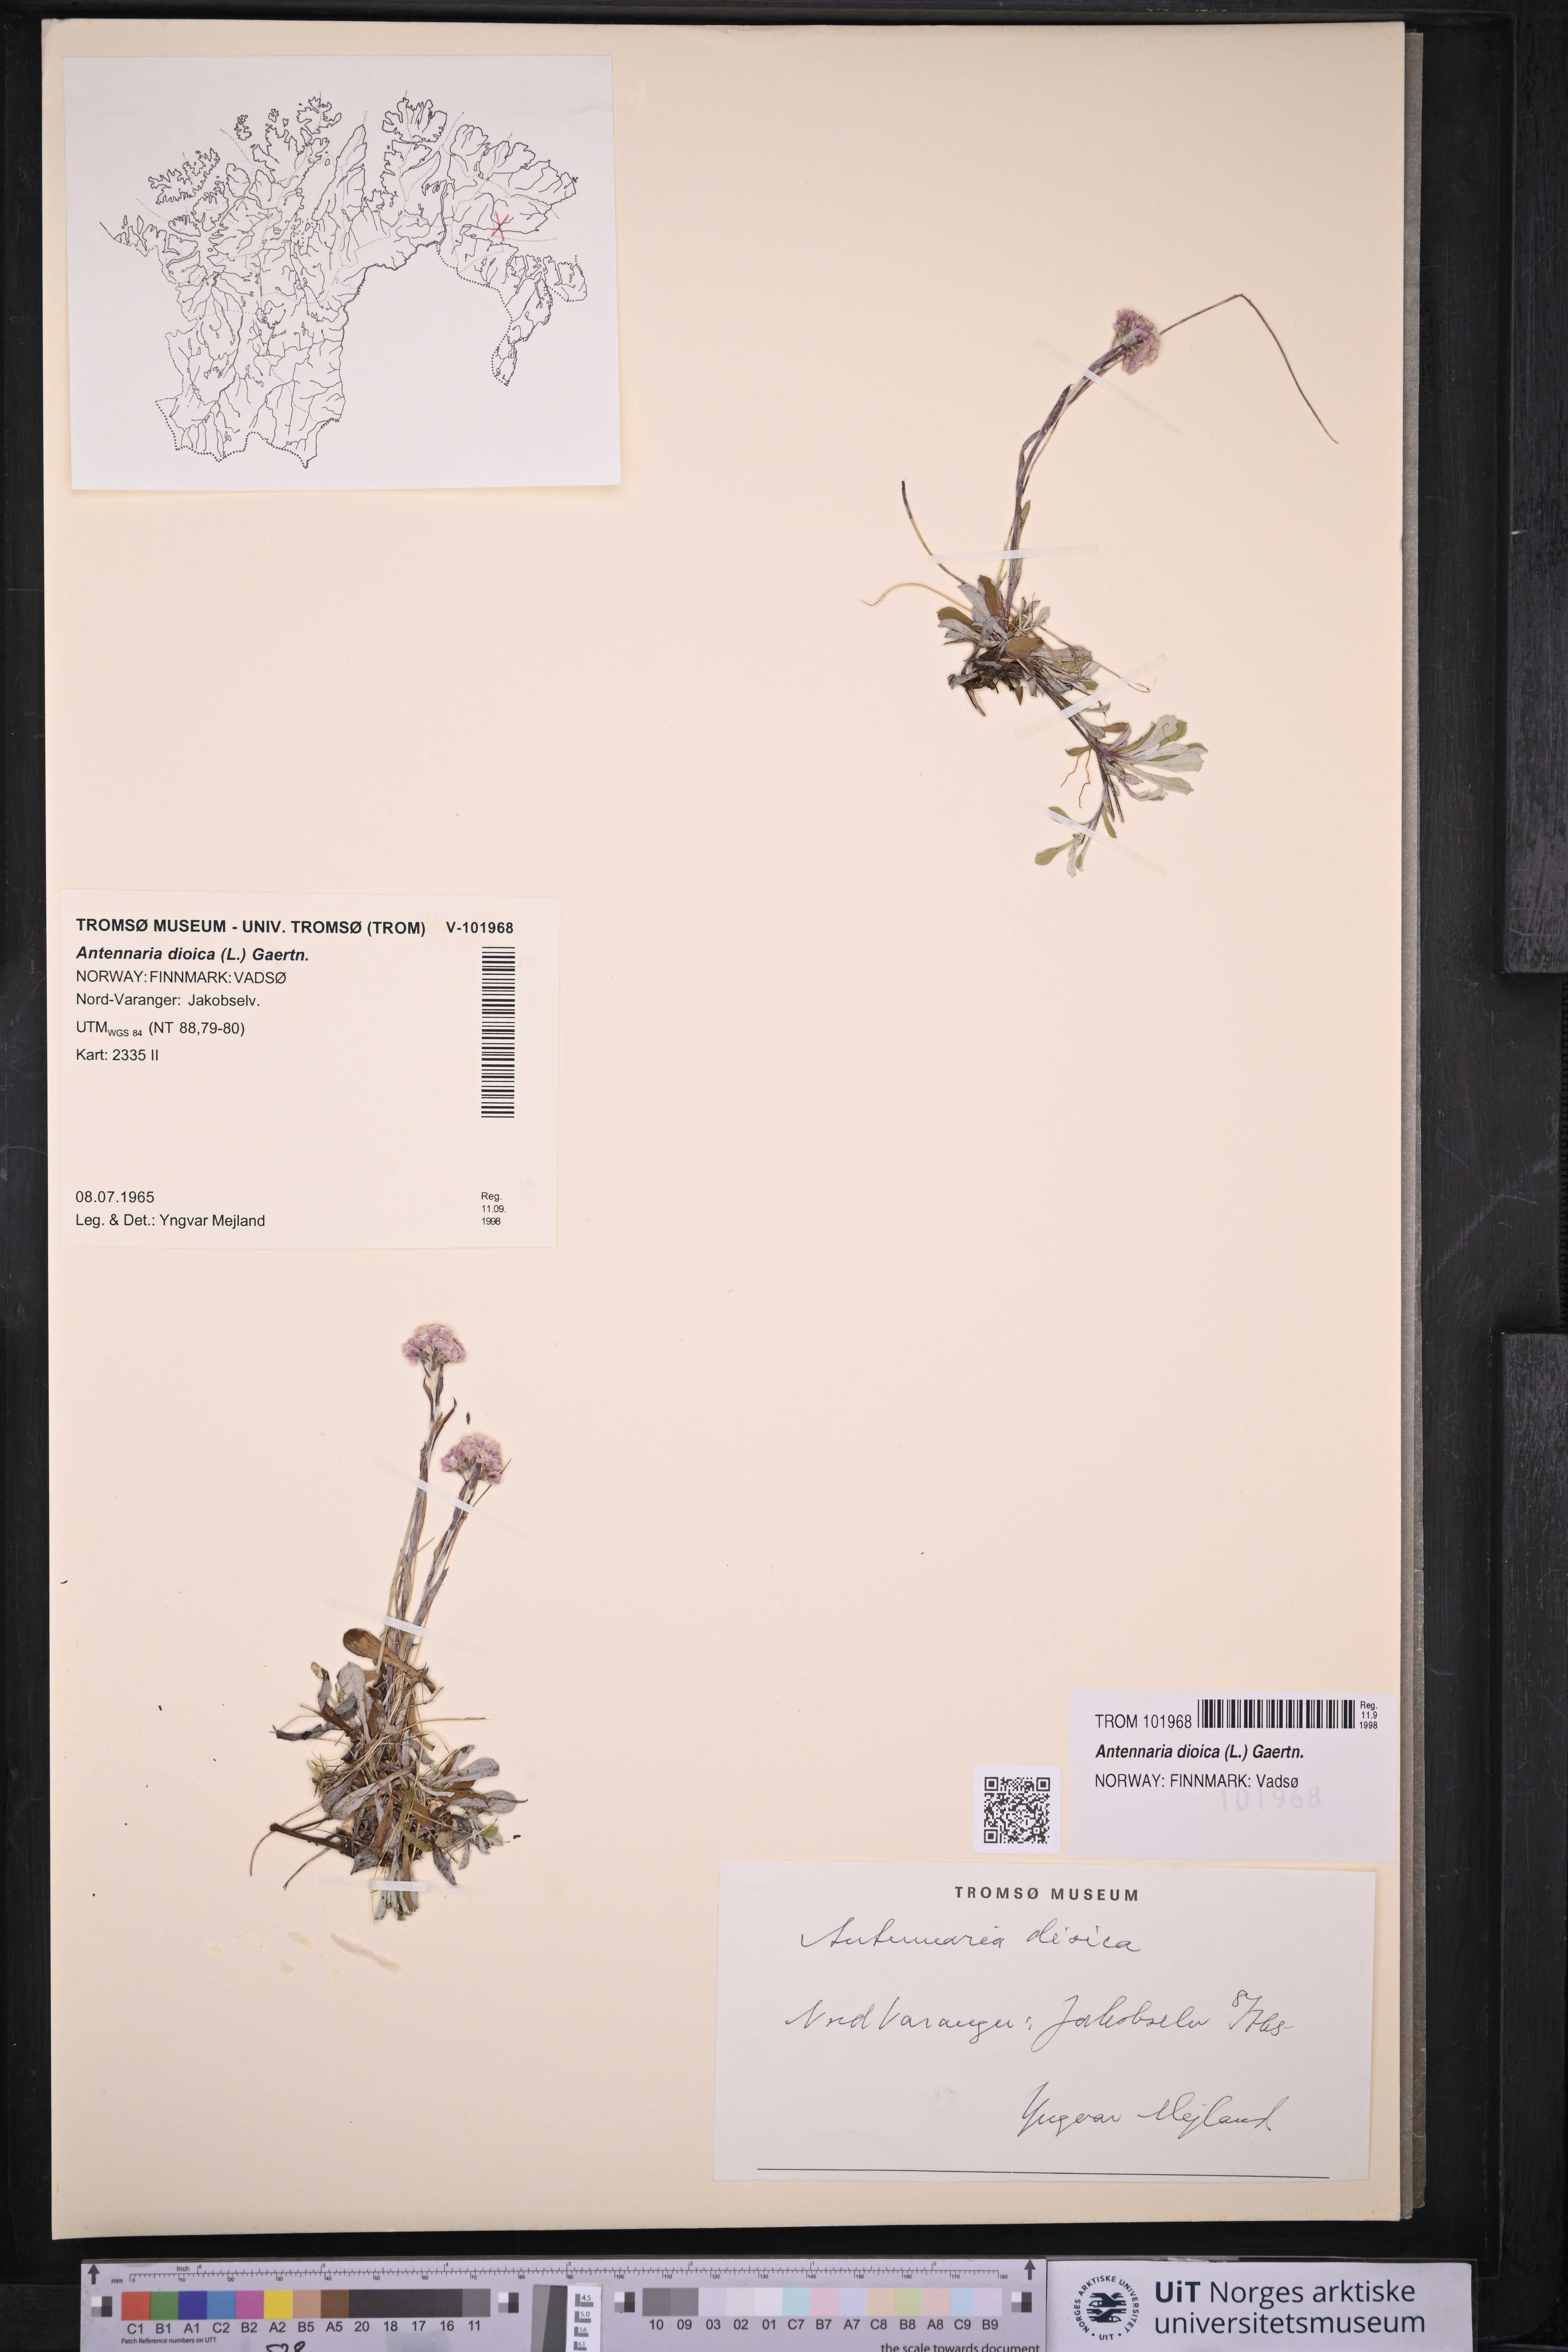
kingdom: Plantae
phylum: Tracheophyta
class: Magnoliopsida
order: Asterales
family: Asteraceae
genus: Antennaria
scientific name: Antennaria dioica
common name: Mountain everlasting
